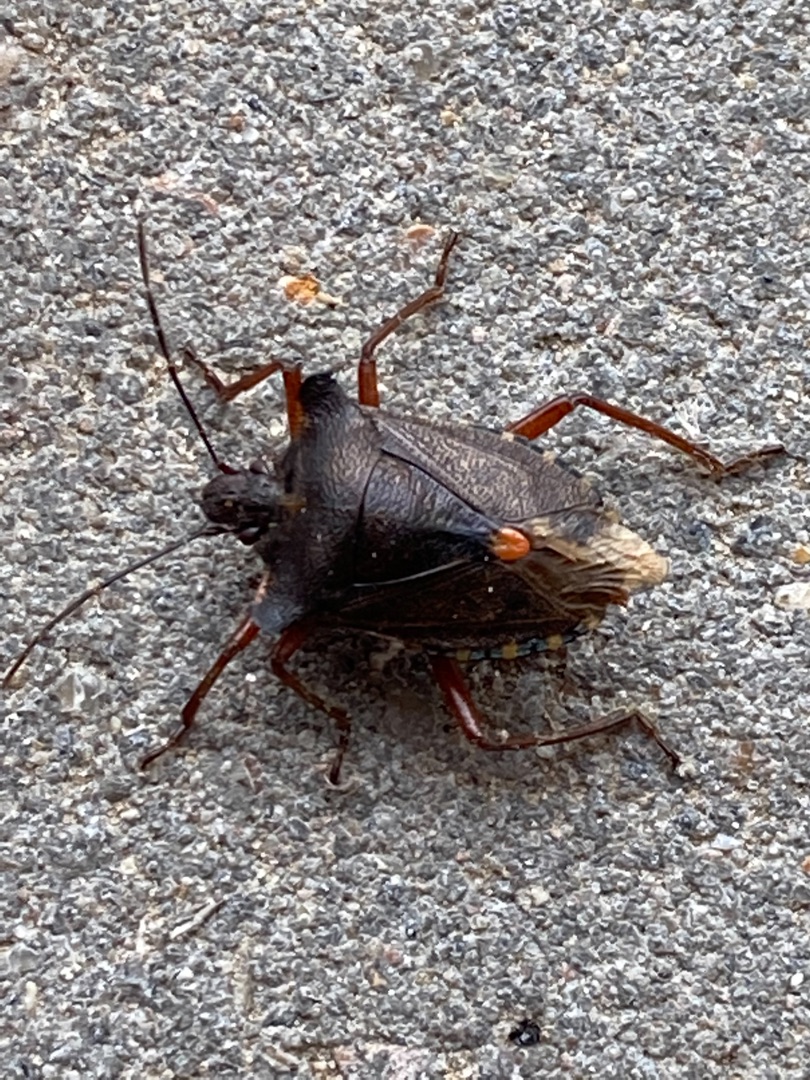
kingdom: Animalia
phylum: Arthropoda
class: Insecta
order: Hemiptera
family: Pentatomidae
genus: Pentatoma
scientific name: Pentatoma rufipes
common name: Rødbenet bredtæge
